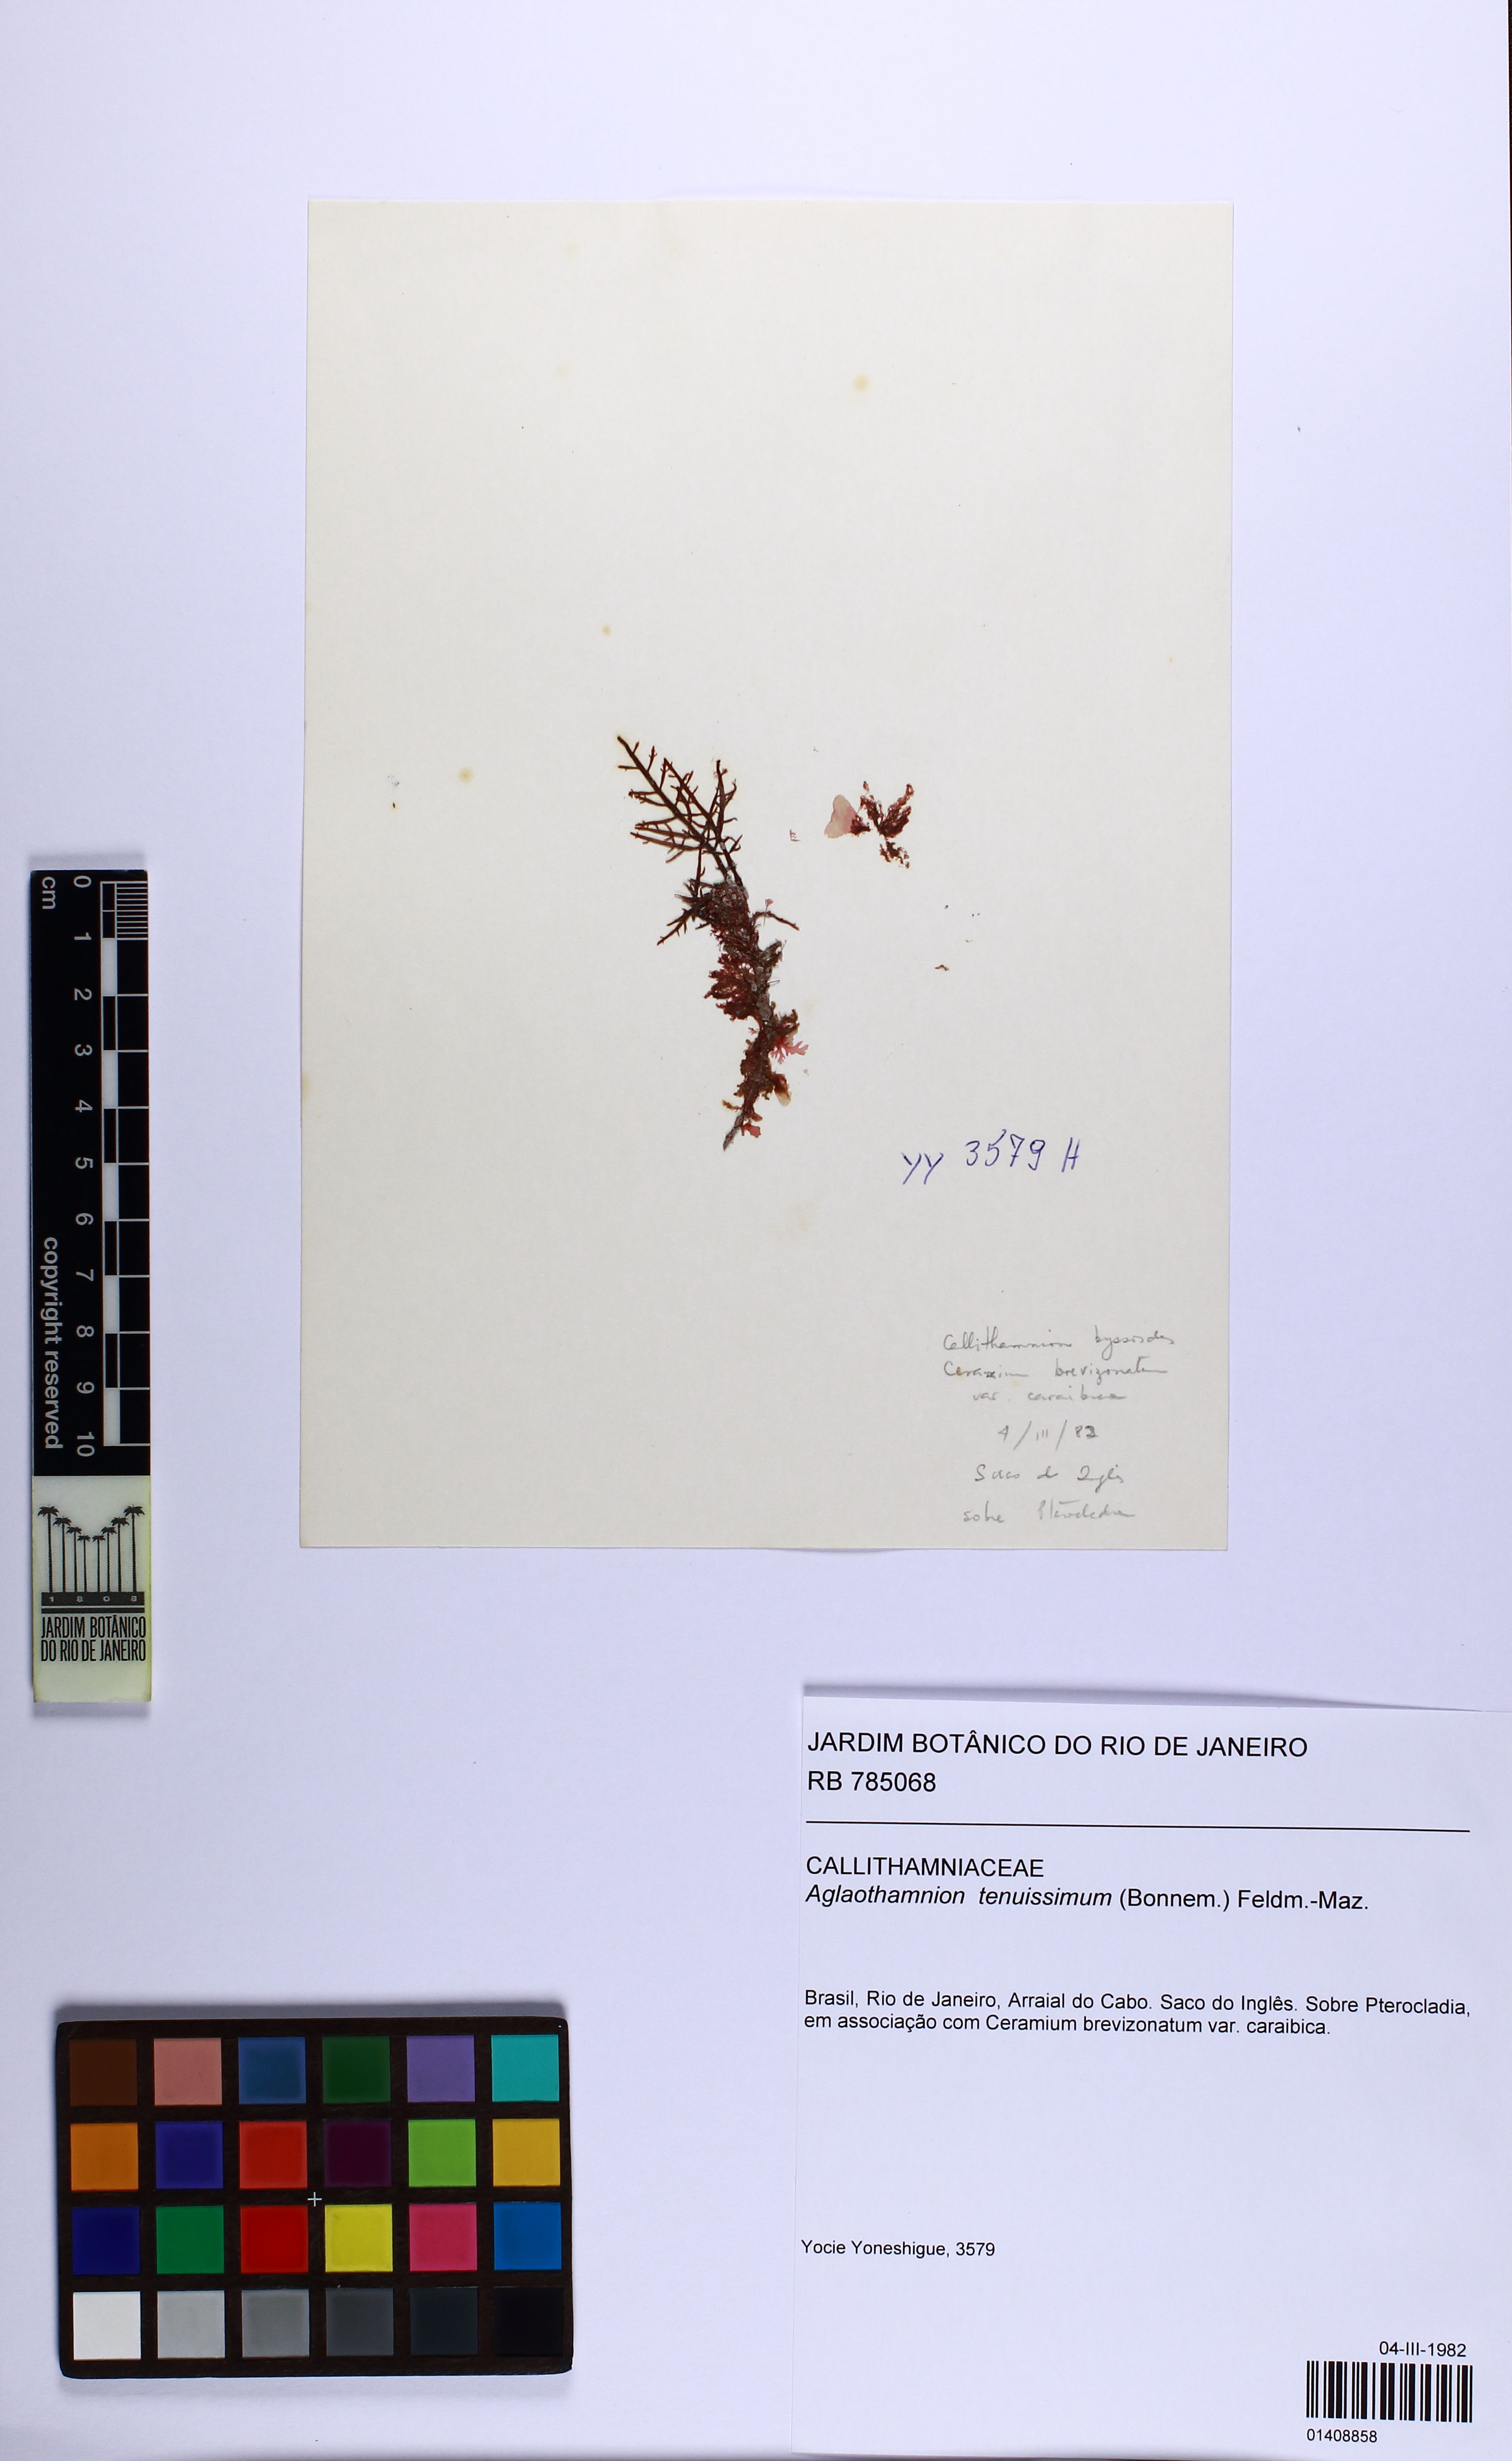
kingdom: Plantae
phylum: Rhodophyta
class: Florideophyceae
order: Ceramiales
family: Callithamniaceae
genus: Aglaothamnion
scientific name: Aglaothamnion tenuissimum
